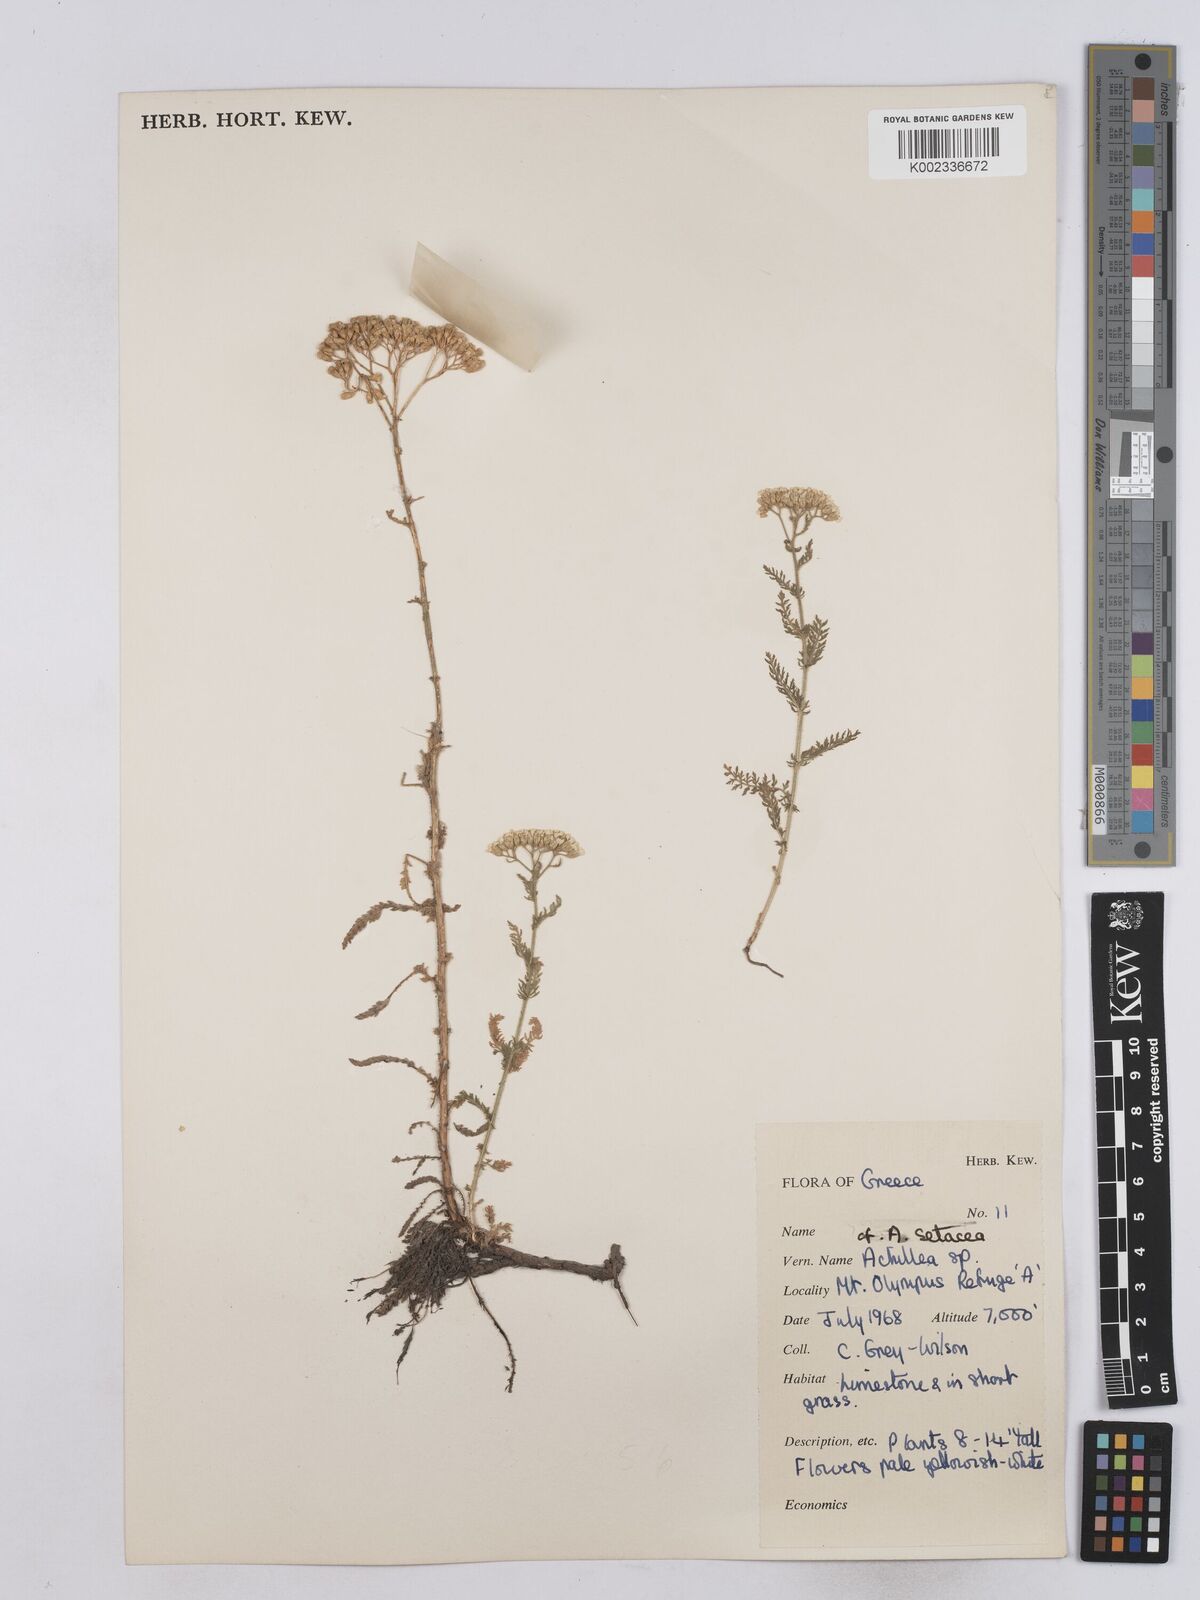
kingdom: Plantae
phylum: Tracheophyta
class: Magnoliopsida
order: Asterales
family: Asteraceae
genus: Achillea
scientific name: Achillea setacea
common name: Bristly yarrow
